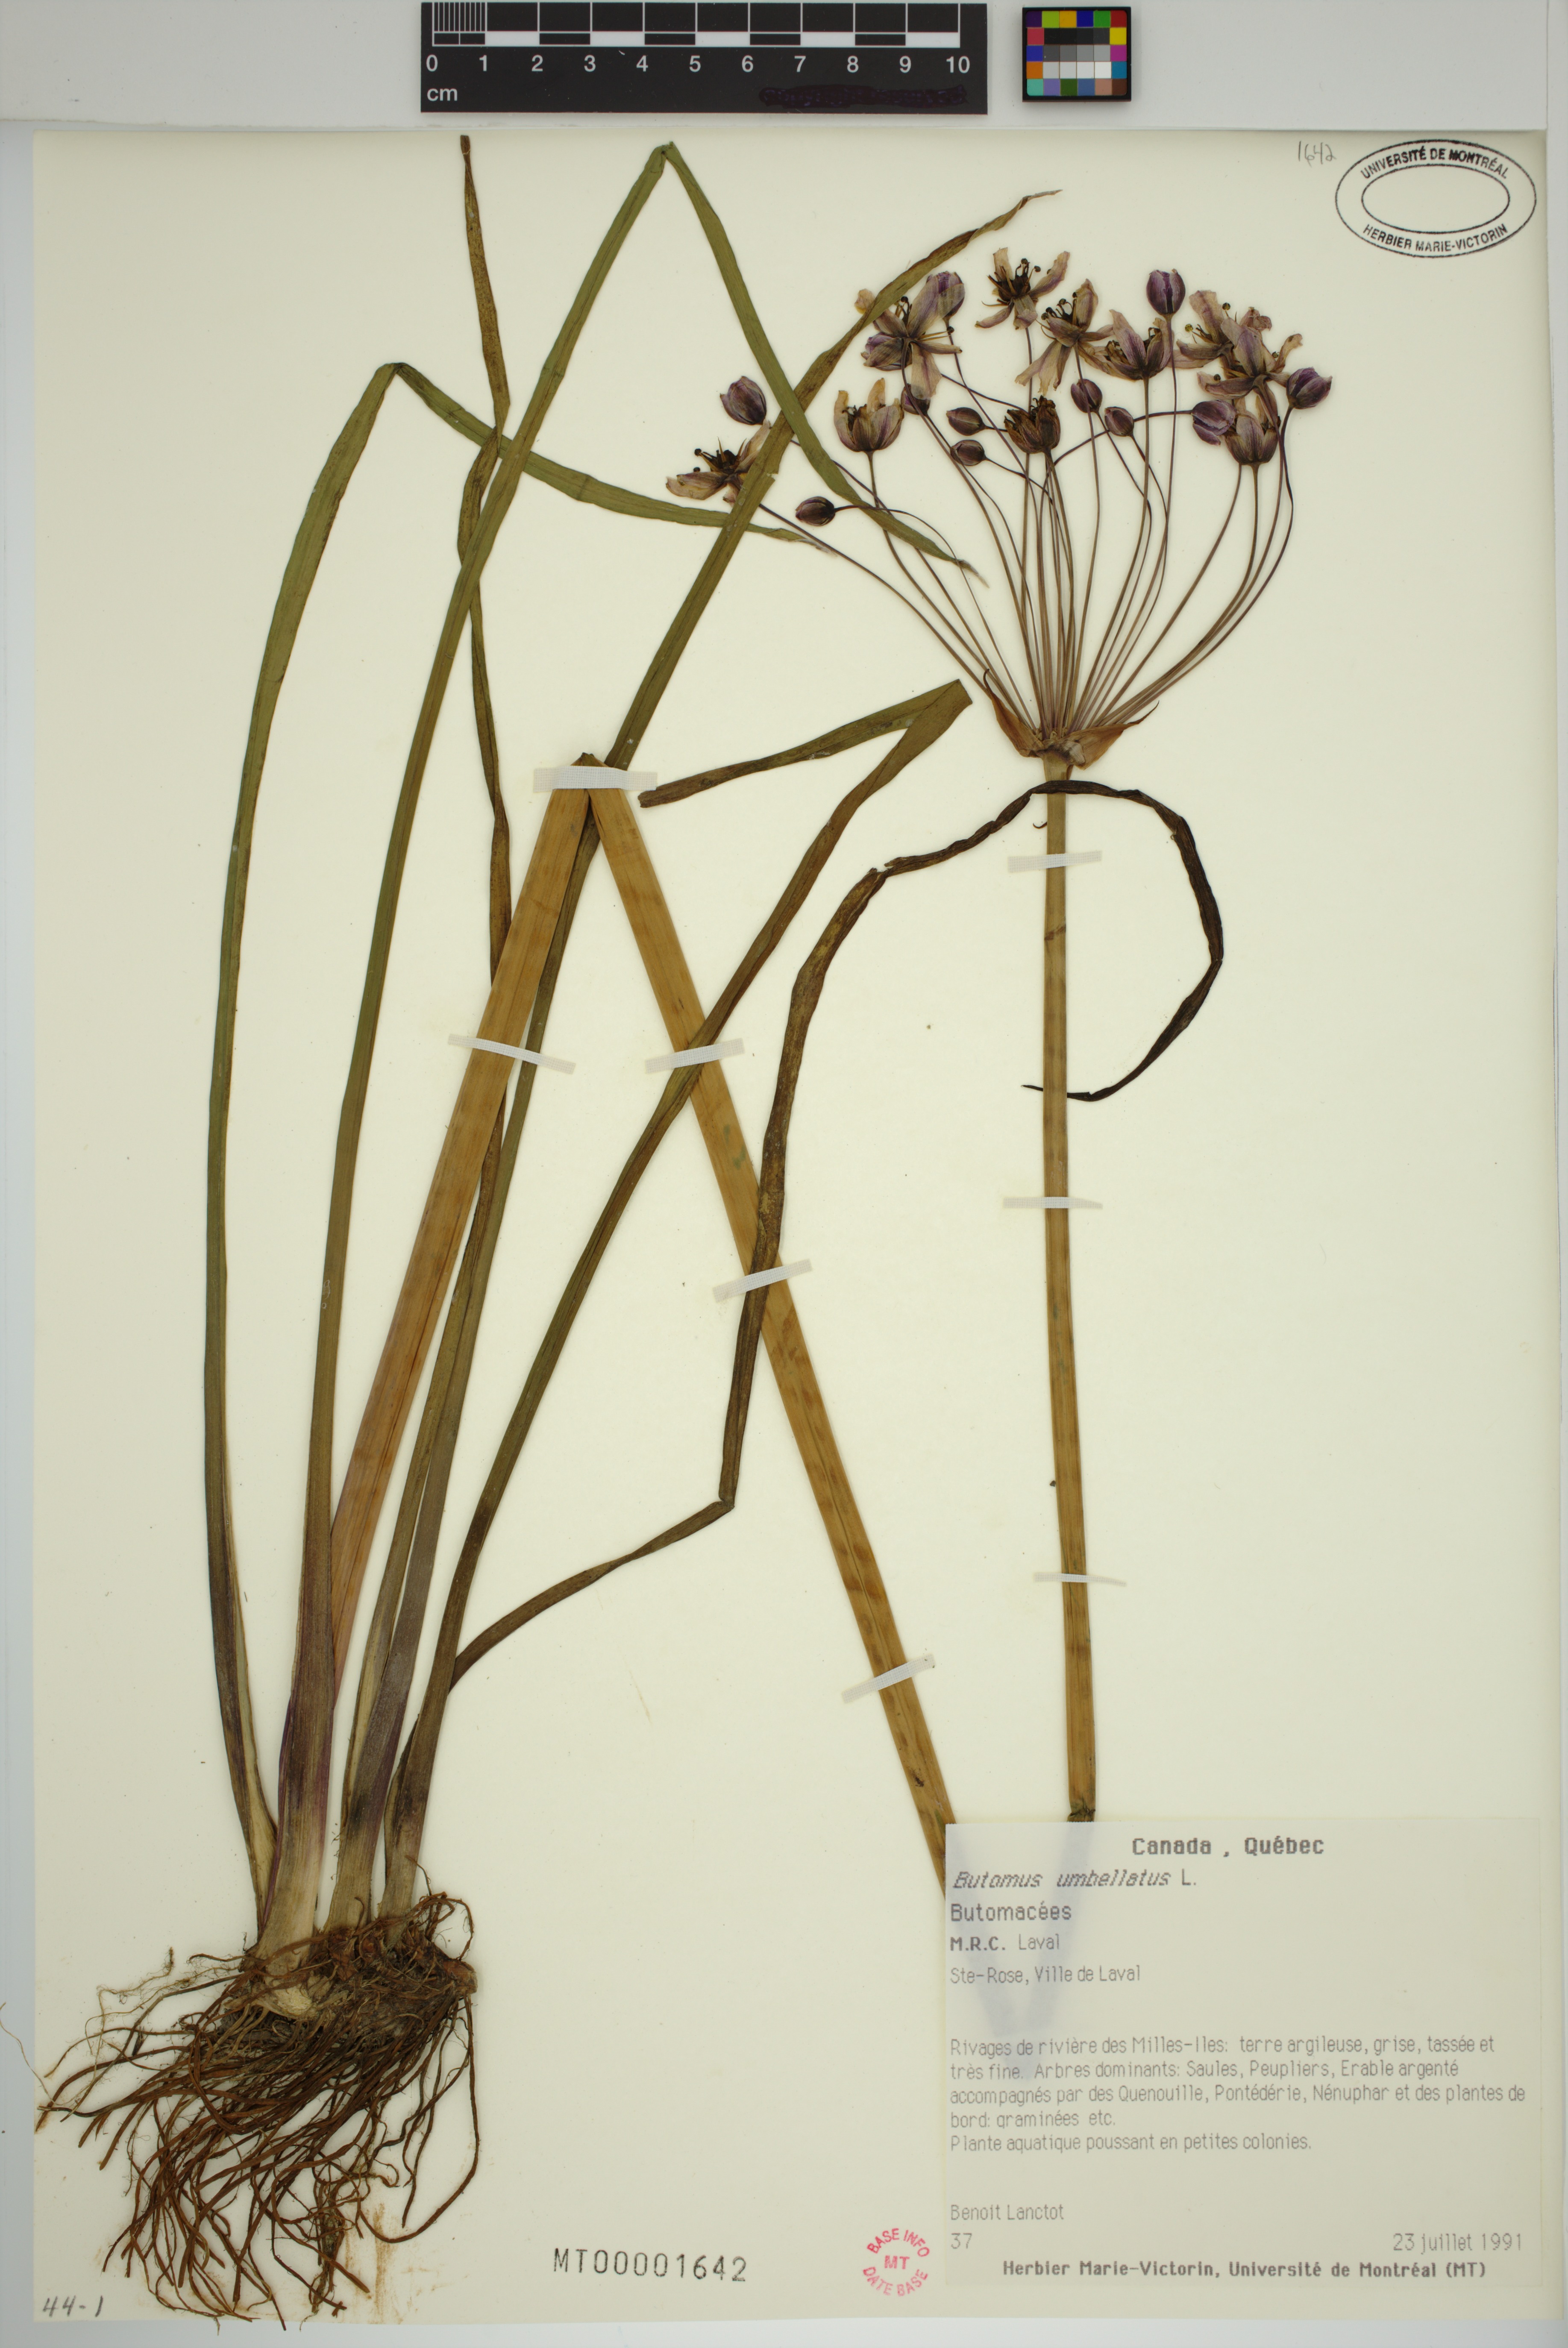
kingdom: Plantae
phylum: Tracheophyta
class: Liliopsida
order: Alismatales
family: Butomaceae
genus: Butomus
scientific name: Butomus umbellatus
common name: Flowering-rush
